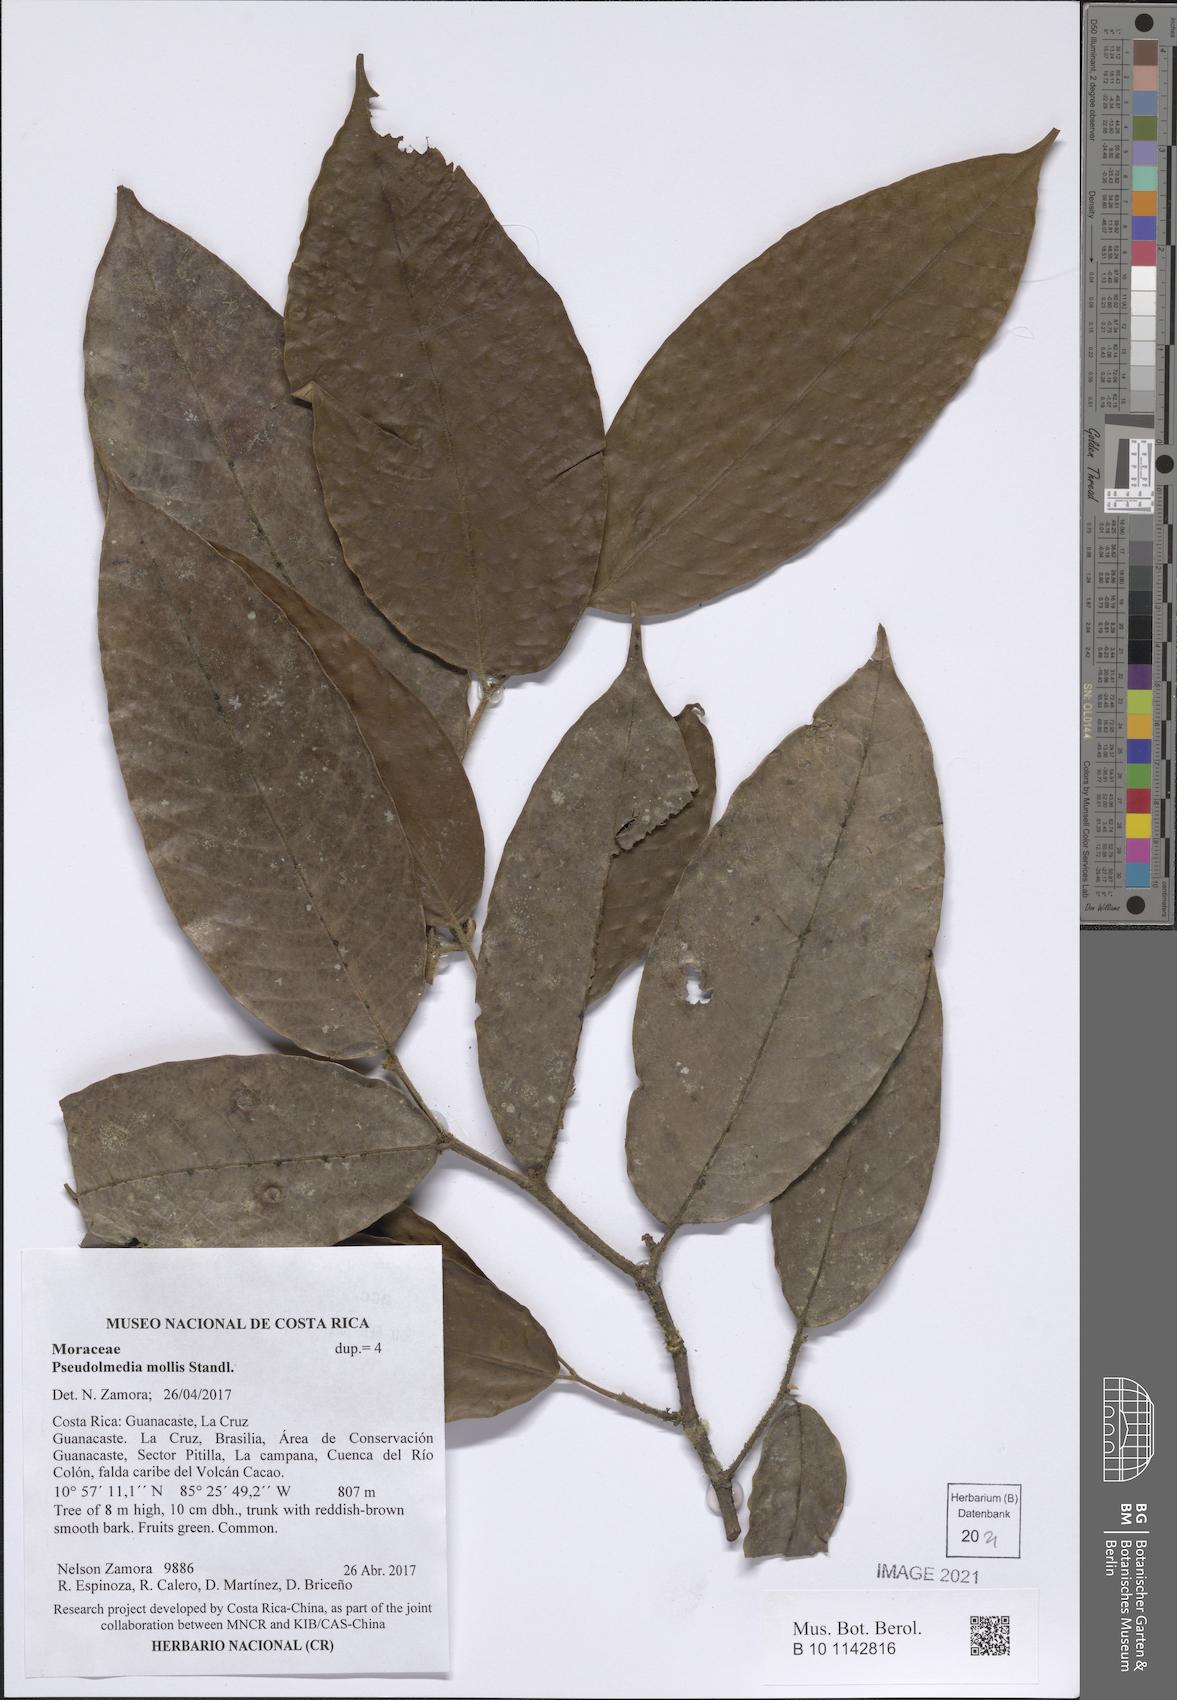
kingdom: Plantae
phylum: Tracheophyta
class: Magnoliopsida
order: Rosales
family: Moraceae
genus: Pseudolmedia
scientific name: Pseudolmedia glabrata
